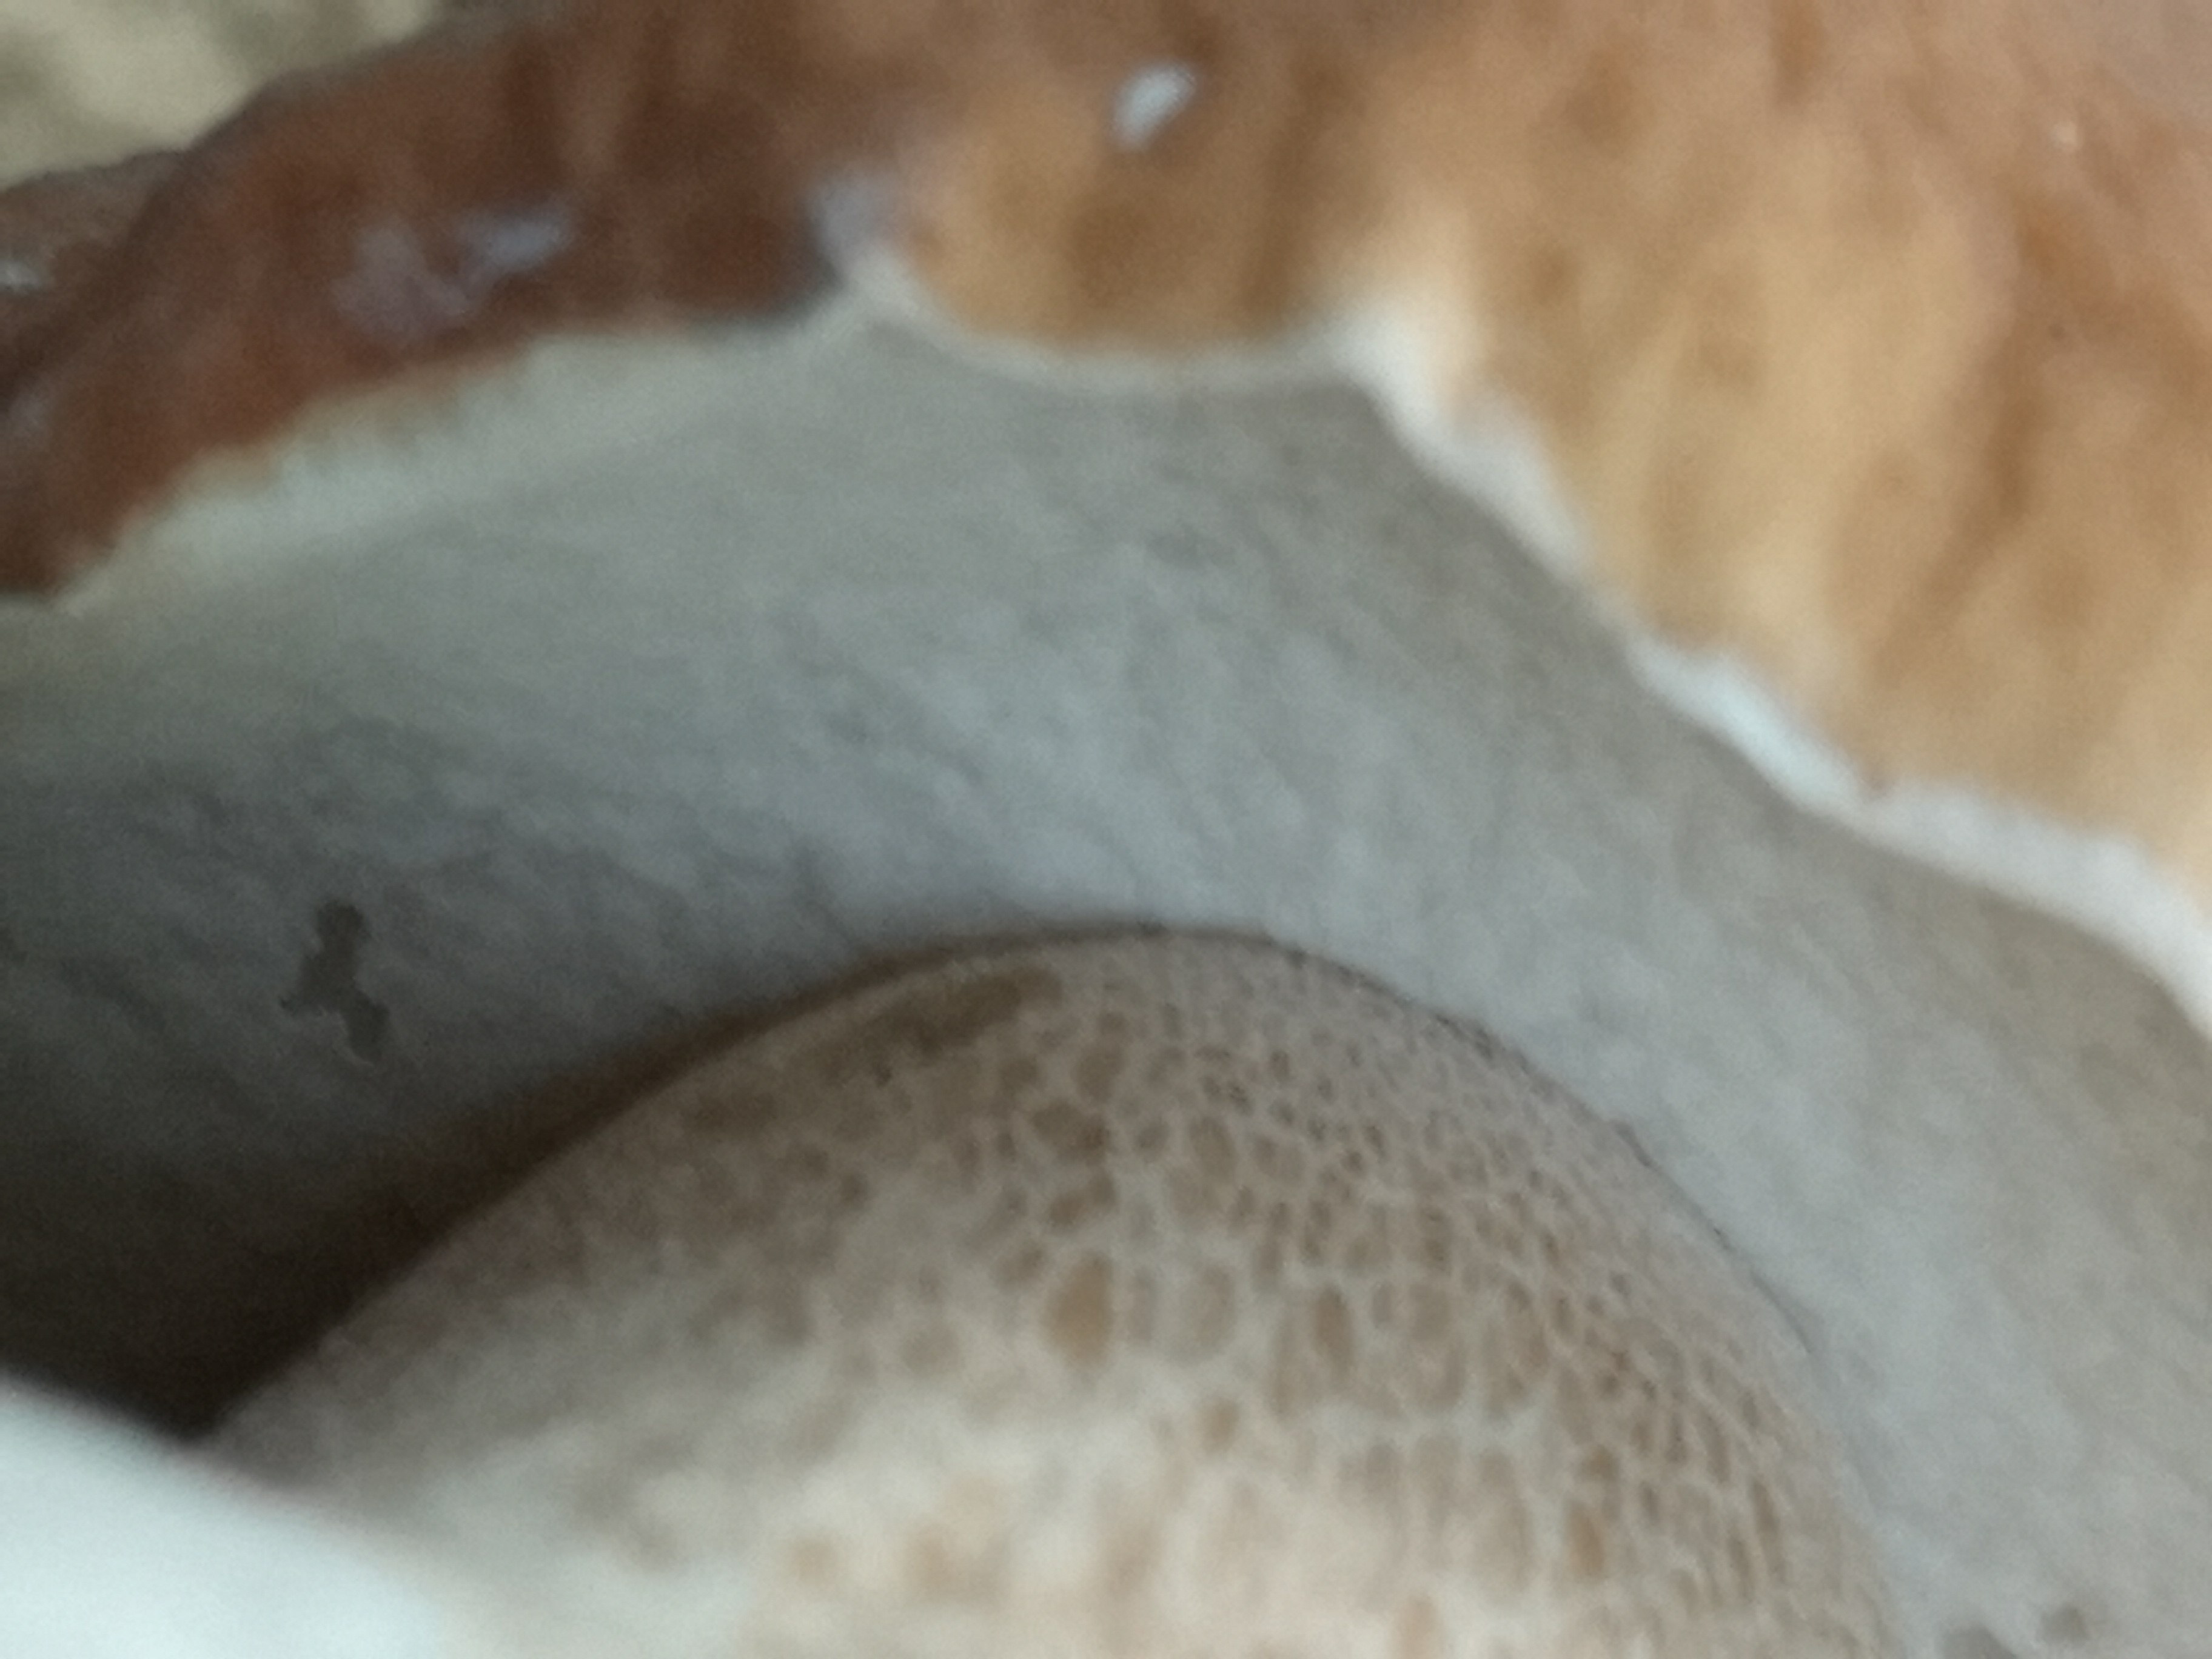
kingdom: Fungi
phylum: Basidiomycota
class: Agaricomycetes
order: Boletales
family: Boletaceae
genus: Boletus
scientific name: Boletus edulis
